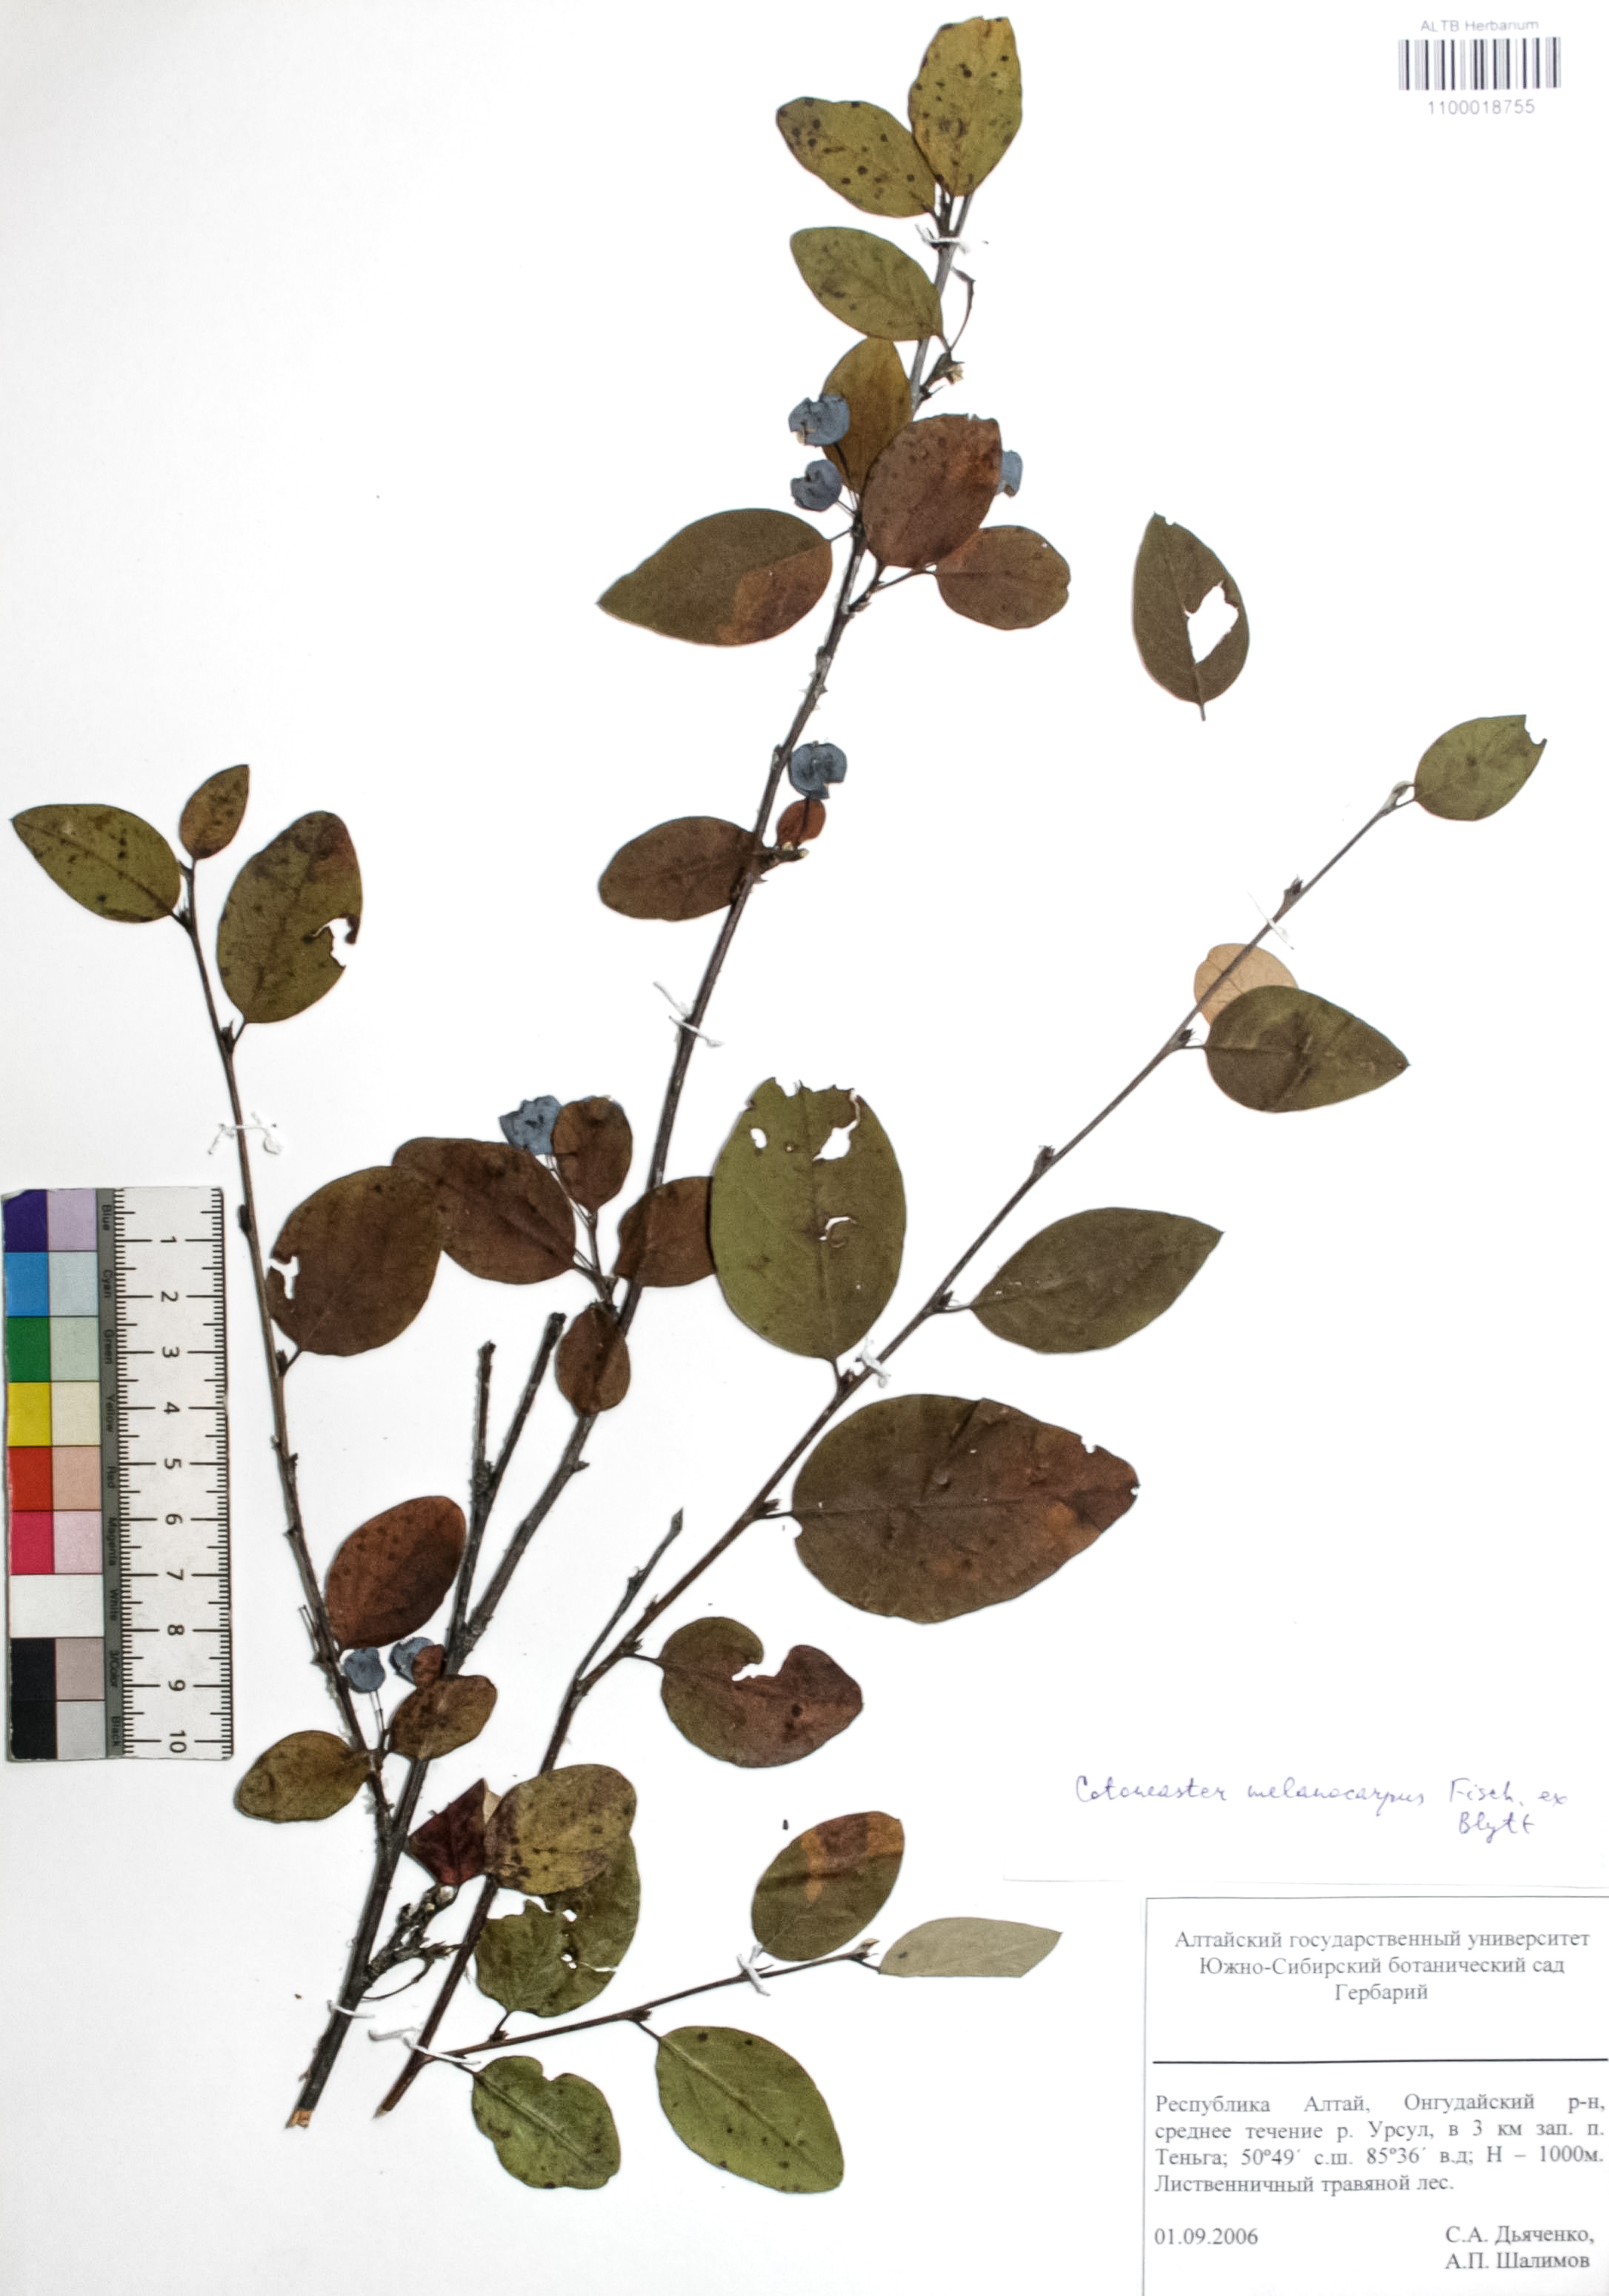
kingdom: Plantae
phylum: Tracheophyta
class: Magnoliopsida
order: Rosales
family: Rosaceae
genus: Cotoneaster
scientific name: Cotoneaster niger
